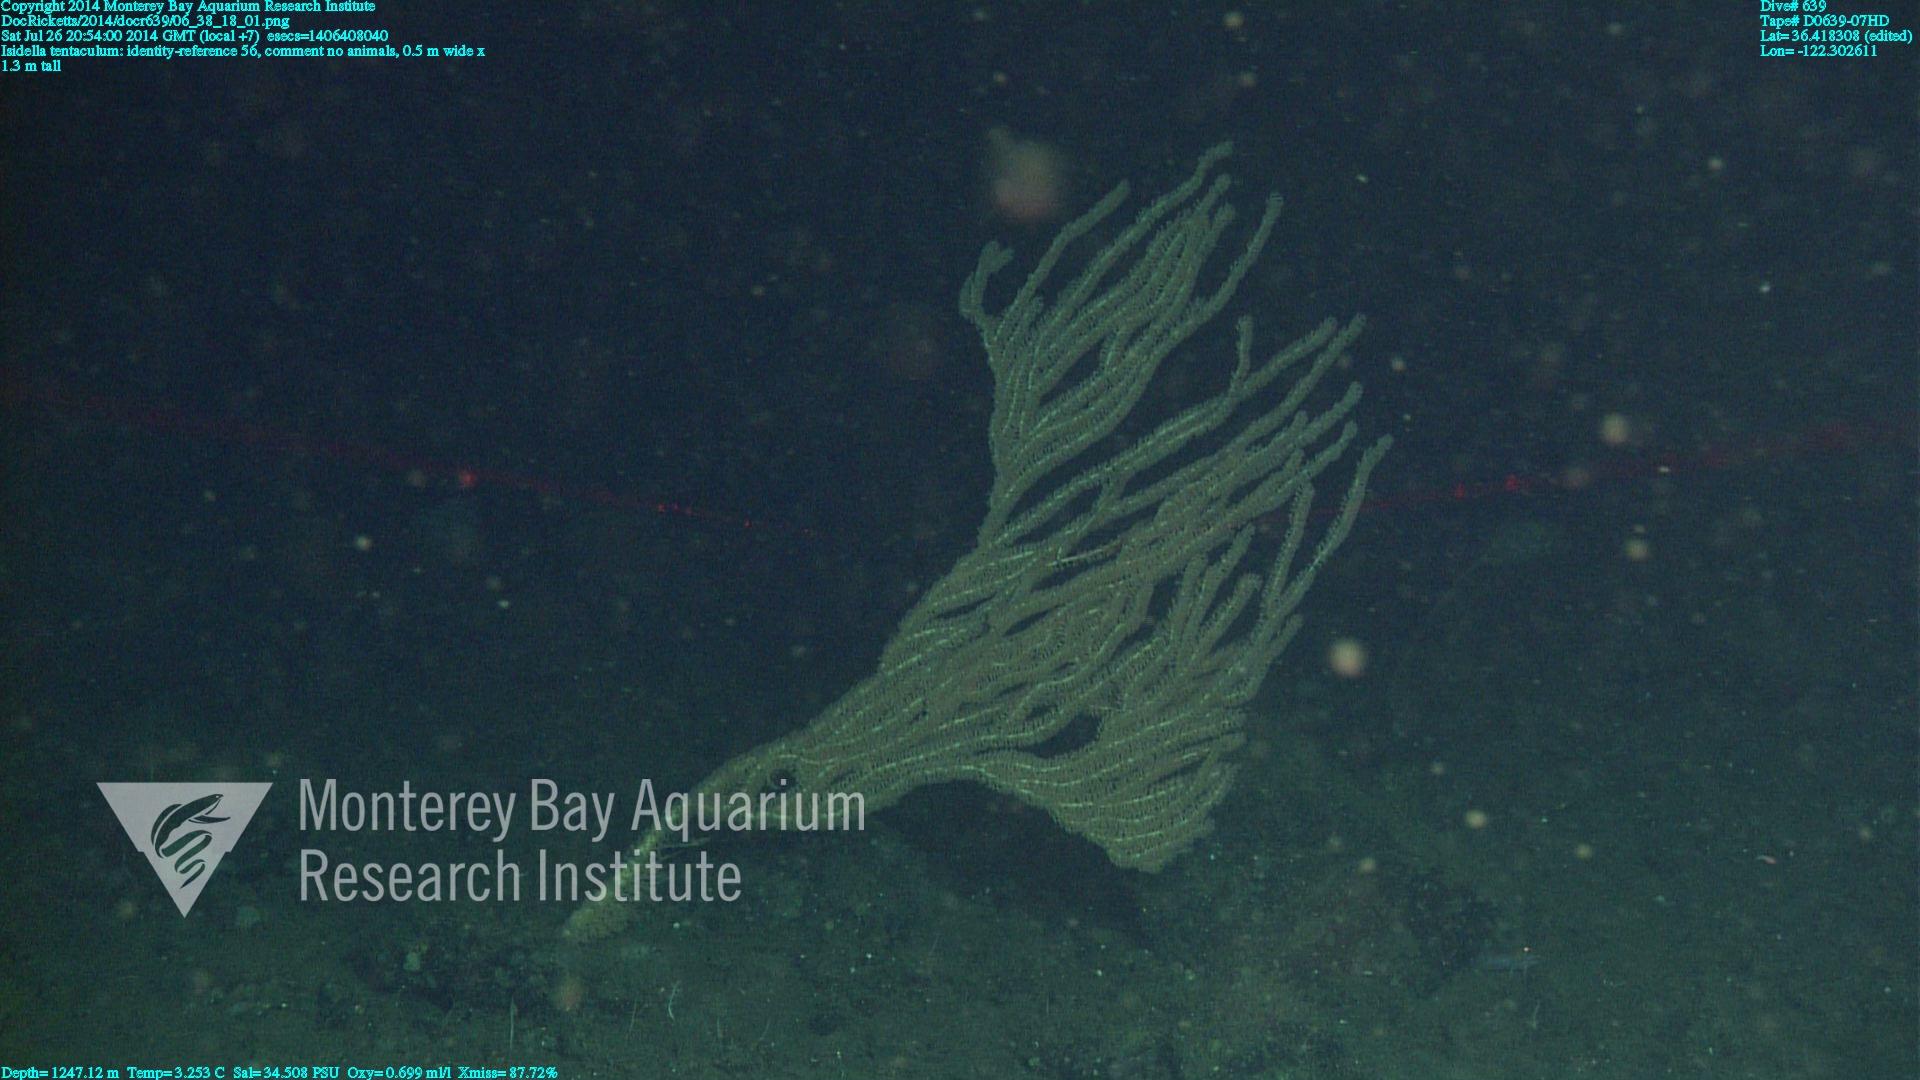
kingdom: Animalia
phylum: Cnidaria
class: Anthozoa
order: Scleralcyonacea
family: Keratoisididae
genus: Isidella
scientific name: Isidella tentaculum
